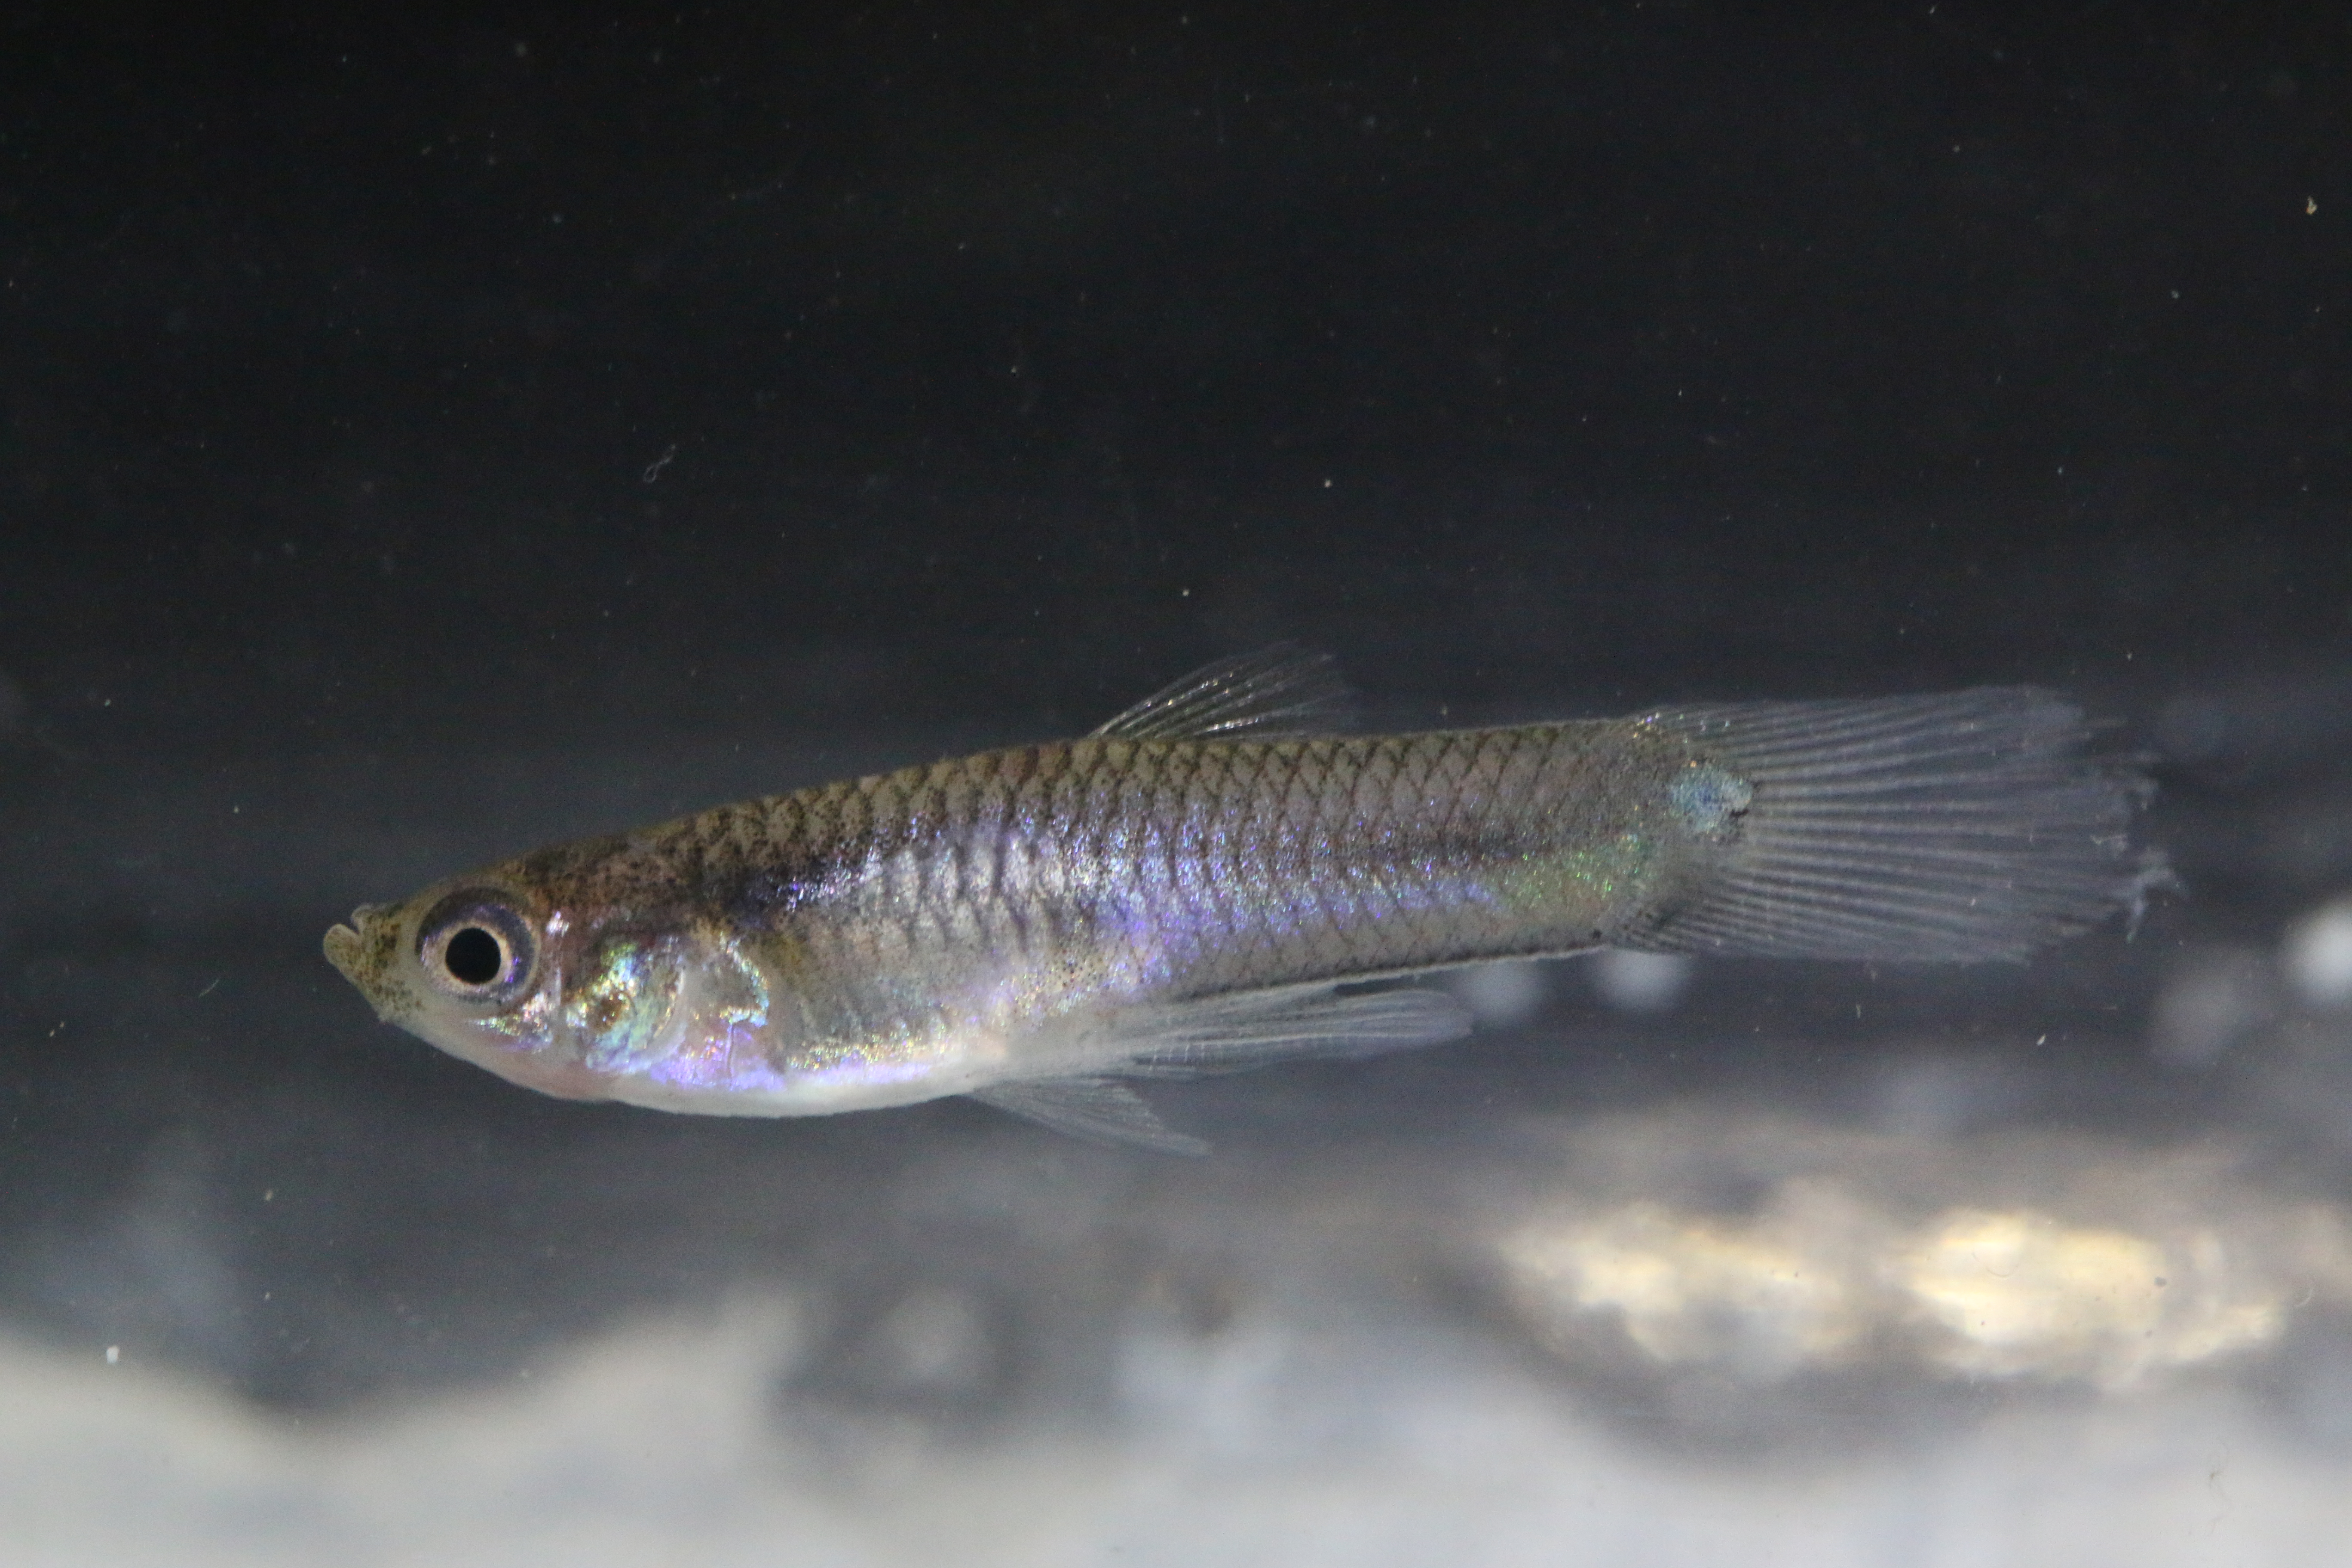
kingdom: Animalia
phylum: Chordata
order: Cyprinodontiformes
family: Poeciliidae
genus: Poecilia
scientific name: Poecilia reticulata
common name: Guppy
